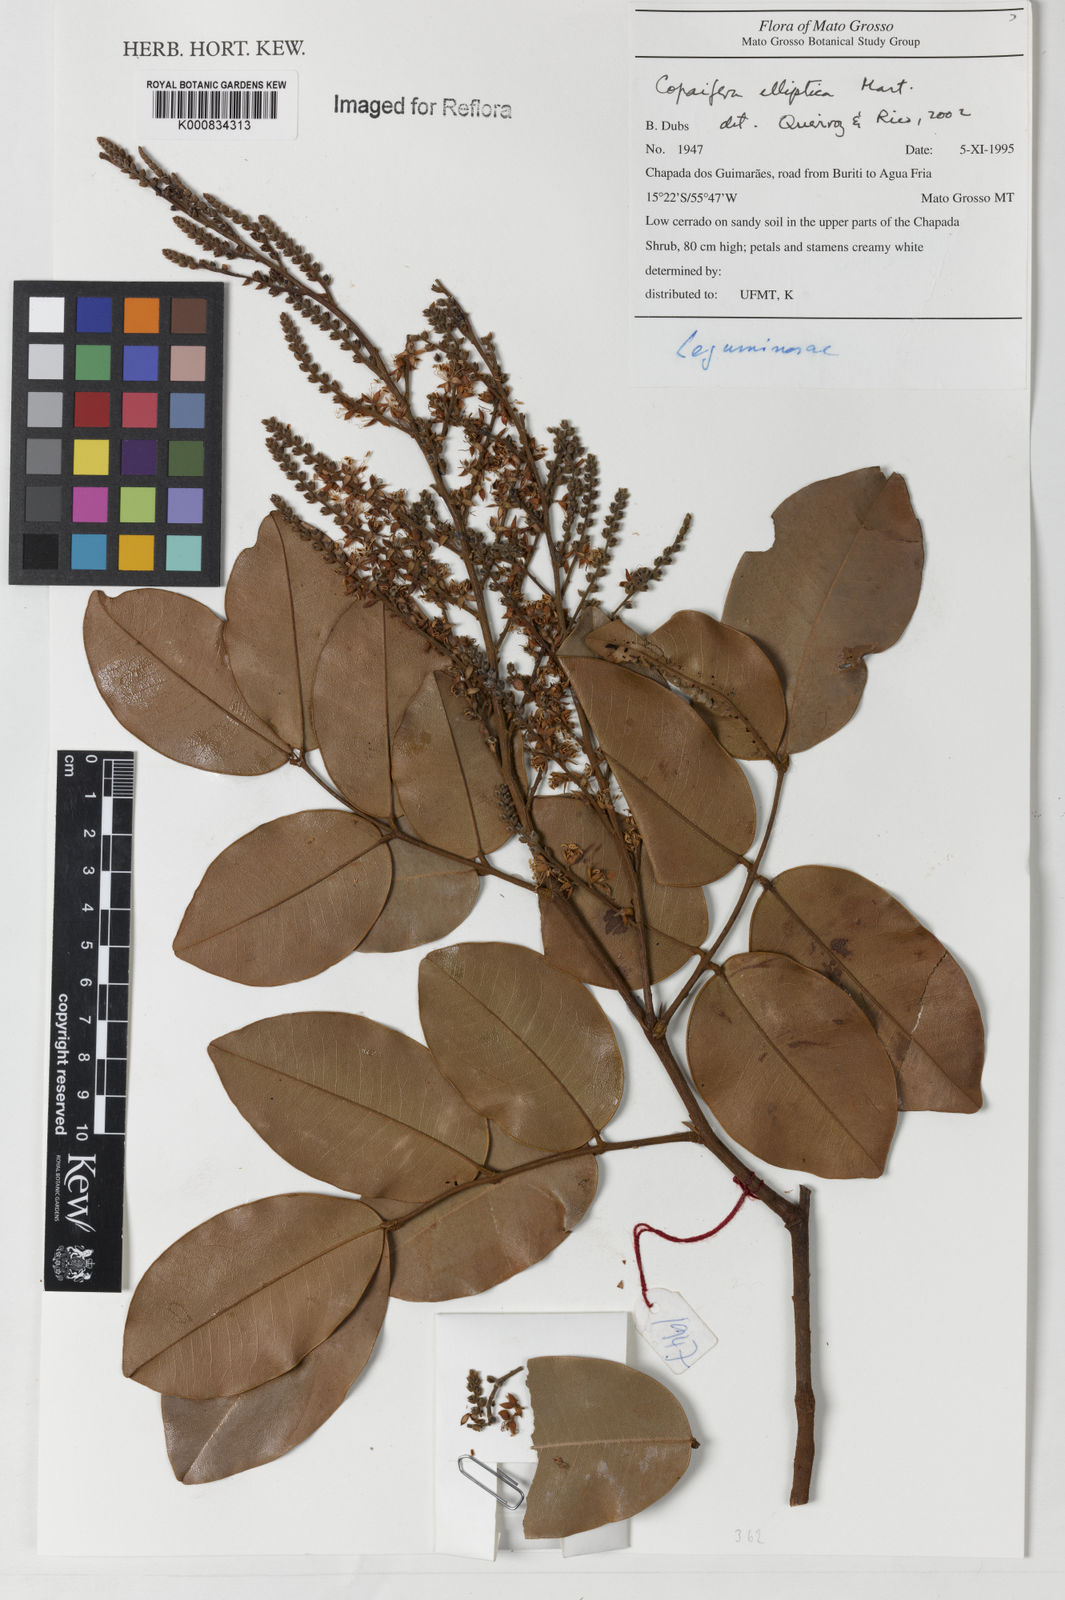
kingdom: Plantae
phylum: Tracheophyta
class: Magnoliopsida
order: Fabales
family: Fabaceae
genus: Copaifera
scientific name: Copaifera elliptica
